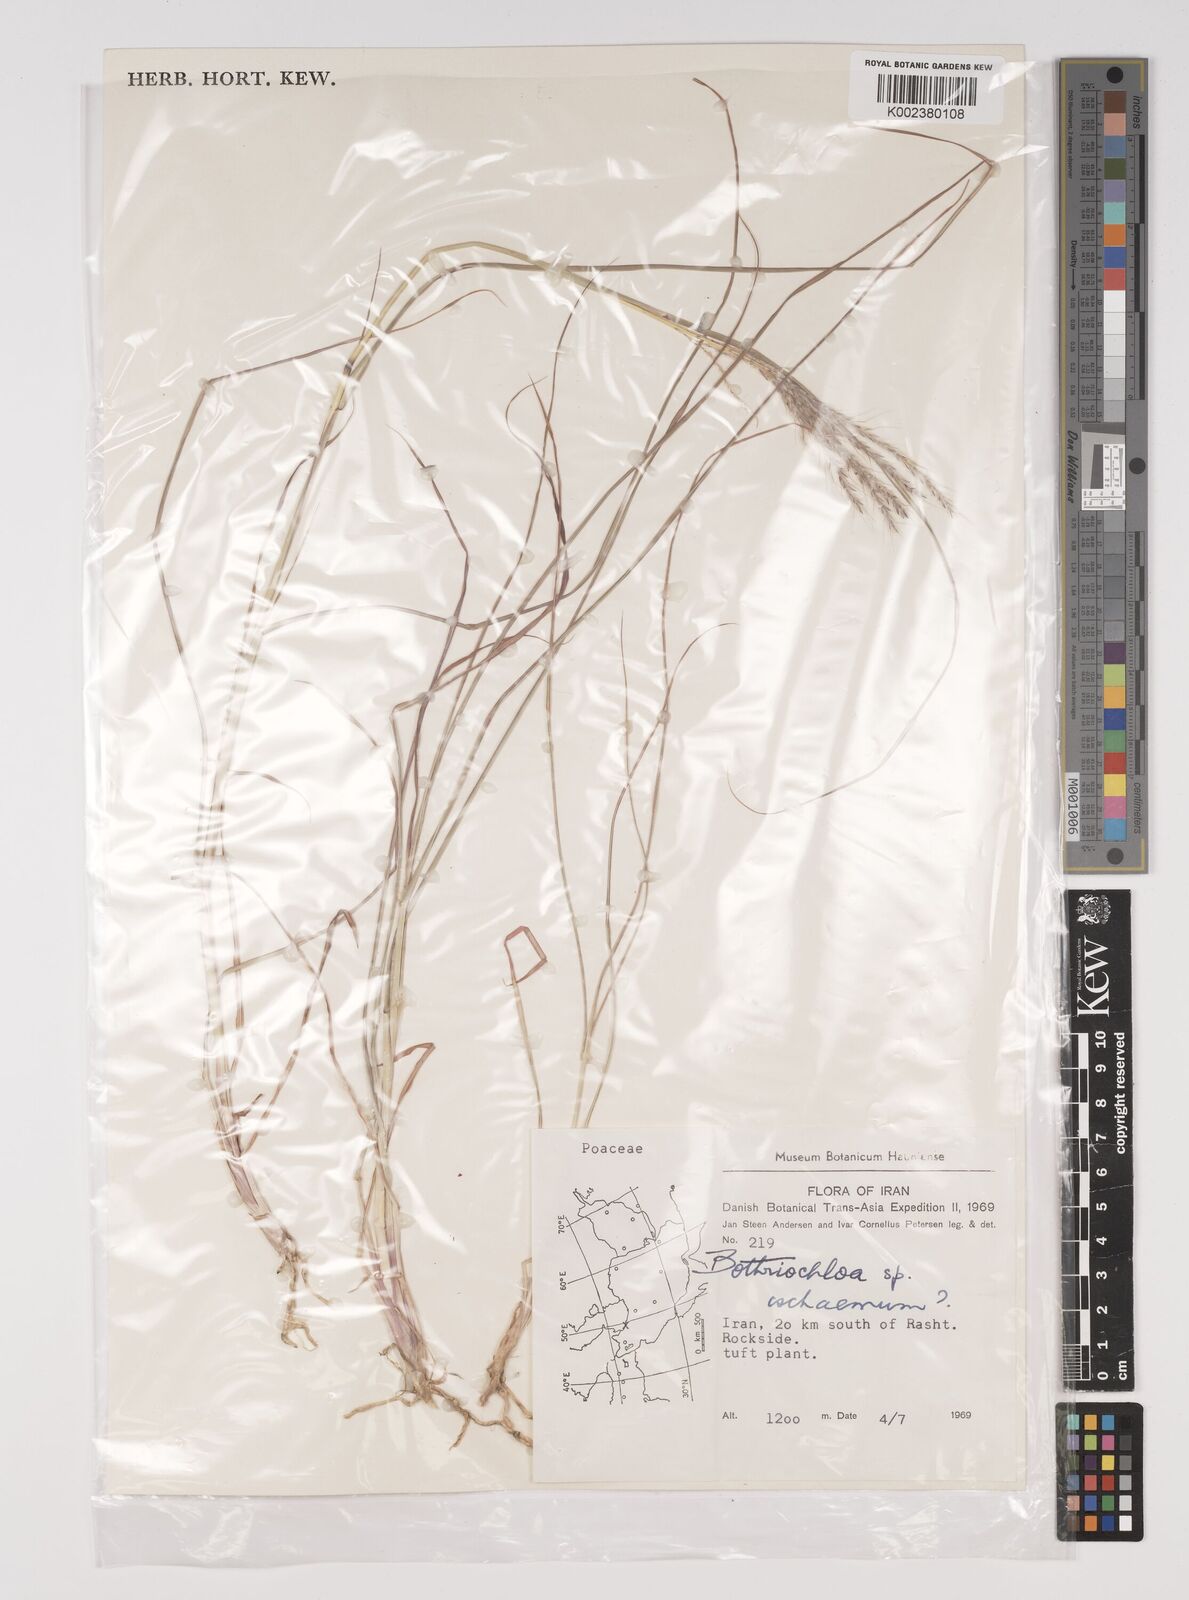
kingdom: Plantae
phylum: Tracheophyta
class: Liliopsida
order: Poales
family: Poaceae
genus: Bothriochloa
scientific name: Bothriochloa ischaemum
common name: Yellow bluestem
